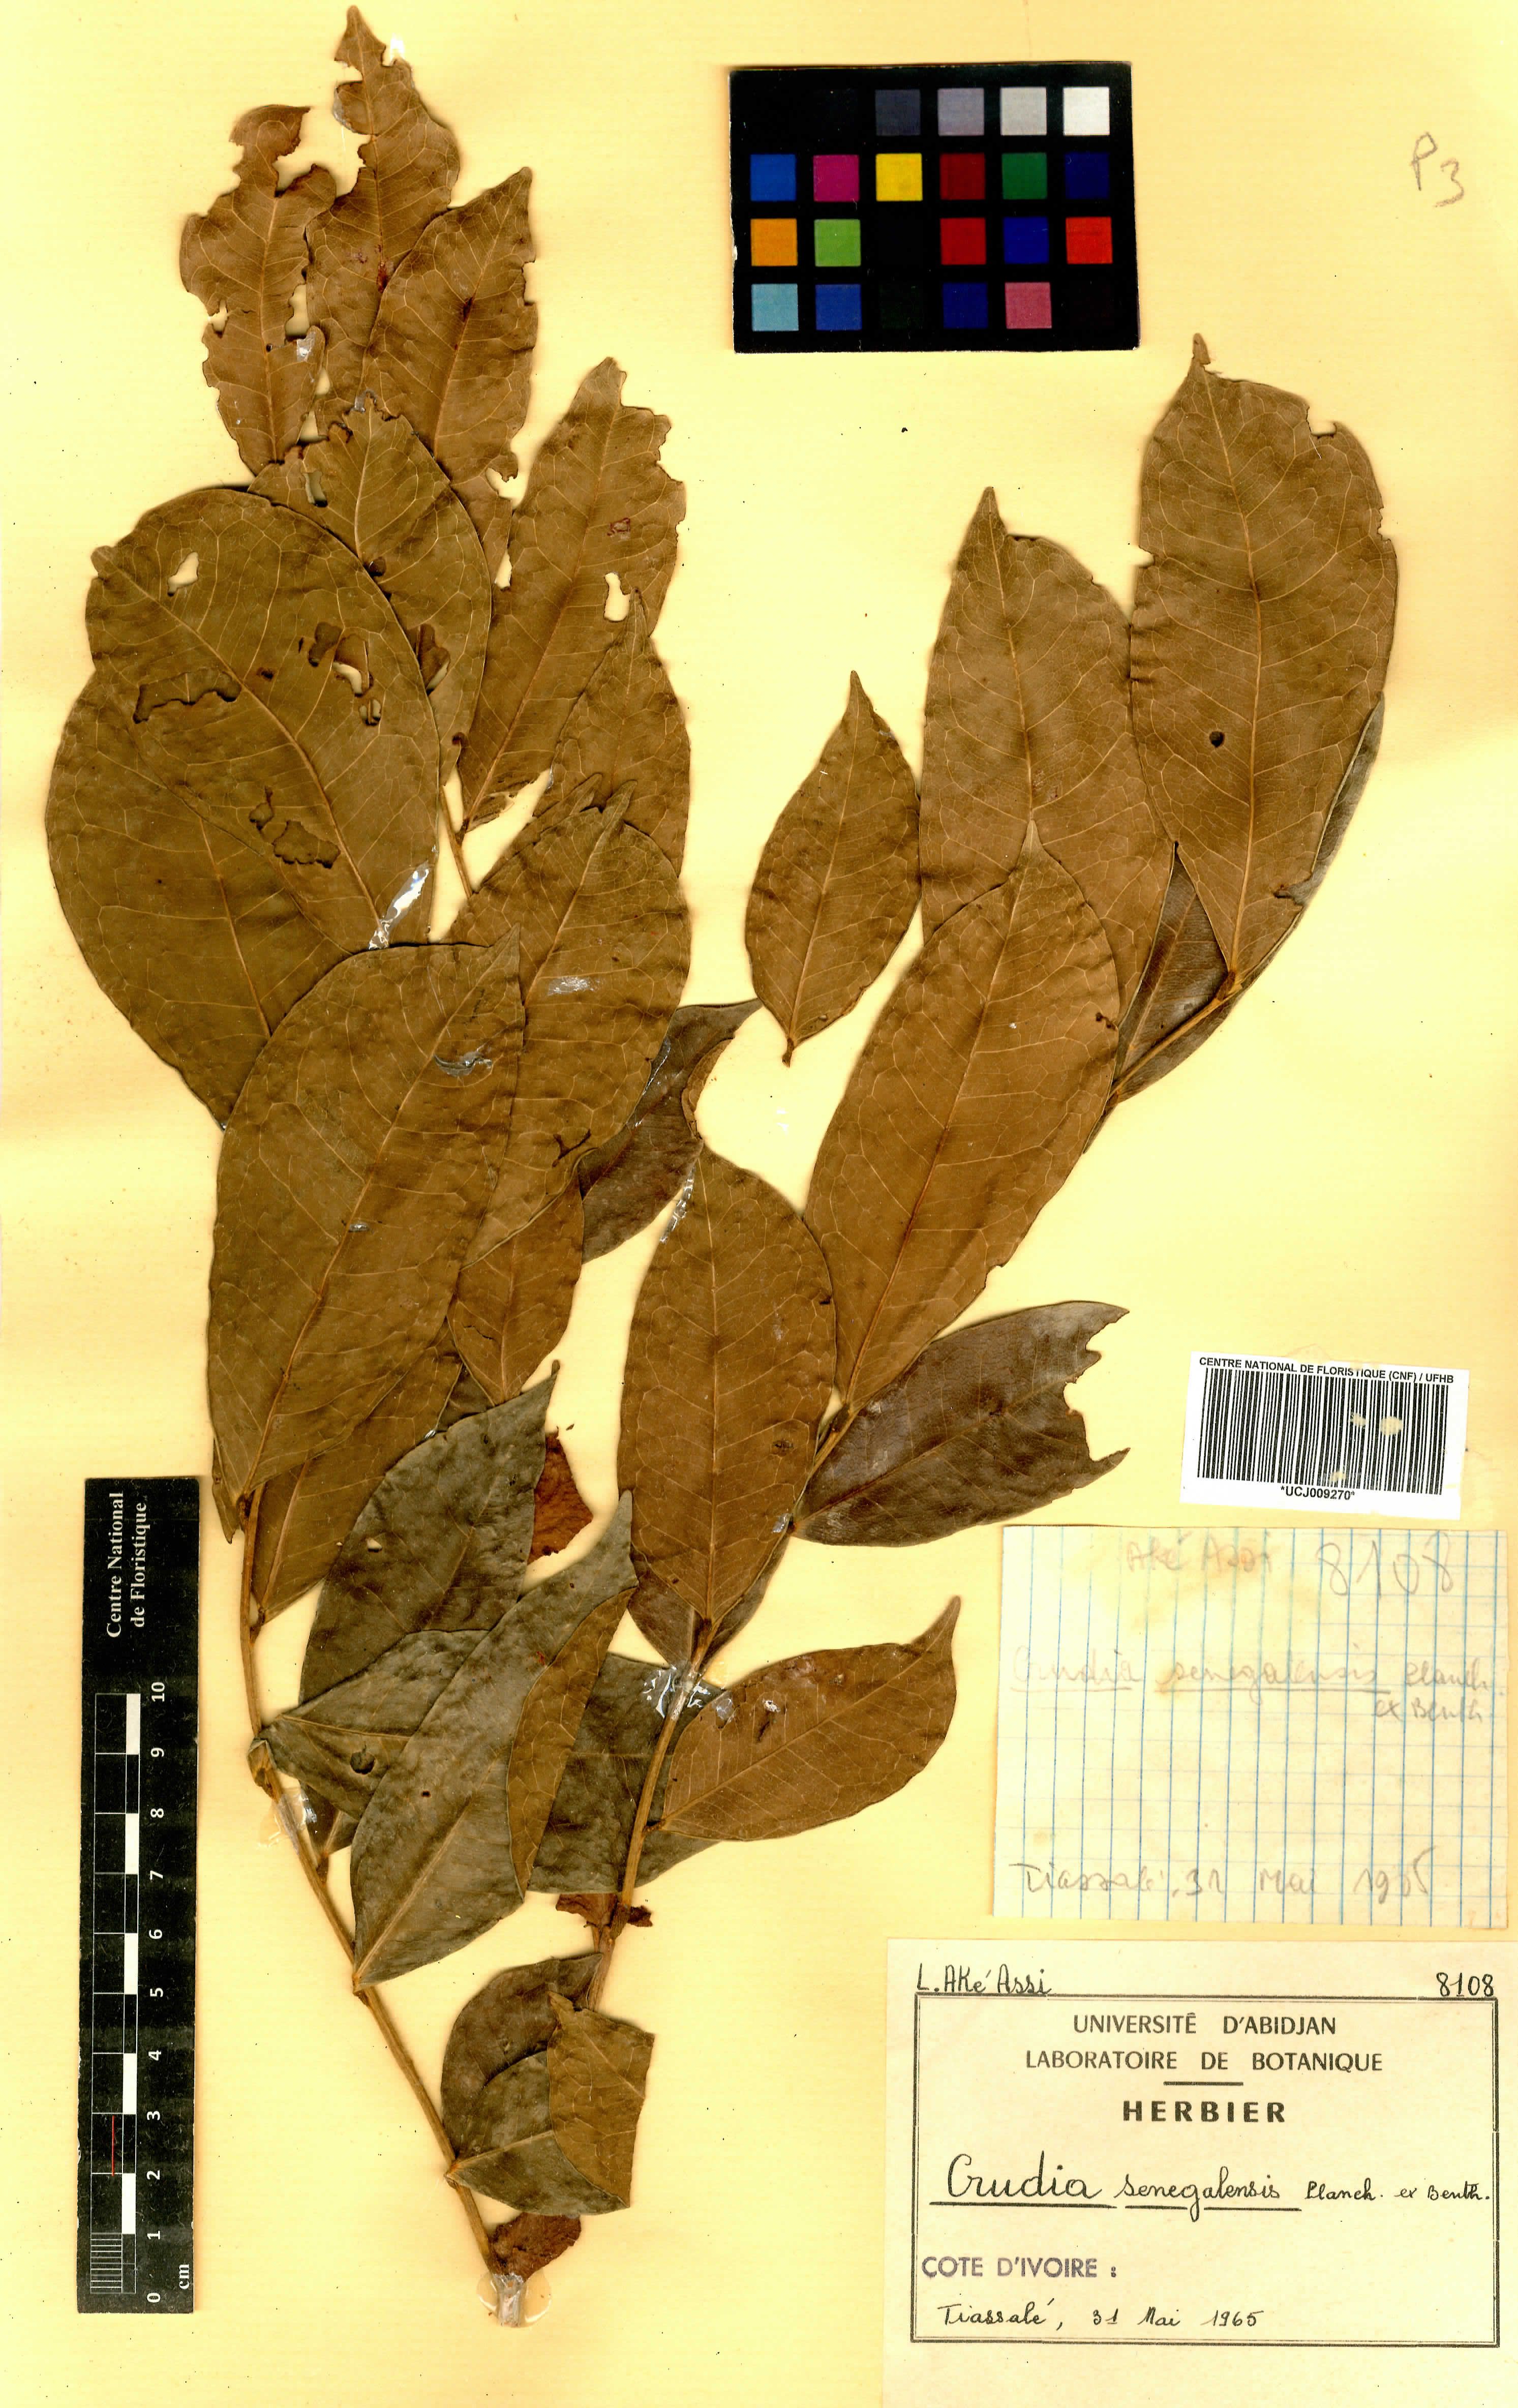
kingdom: Plantae
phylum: Tracheophyta
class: Magnoliopsida
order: Fabales
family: Fabaceae
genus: Crudia
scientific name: Crudia senegalensis
